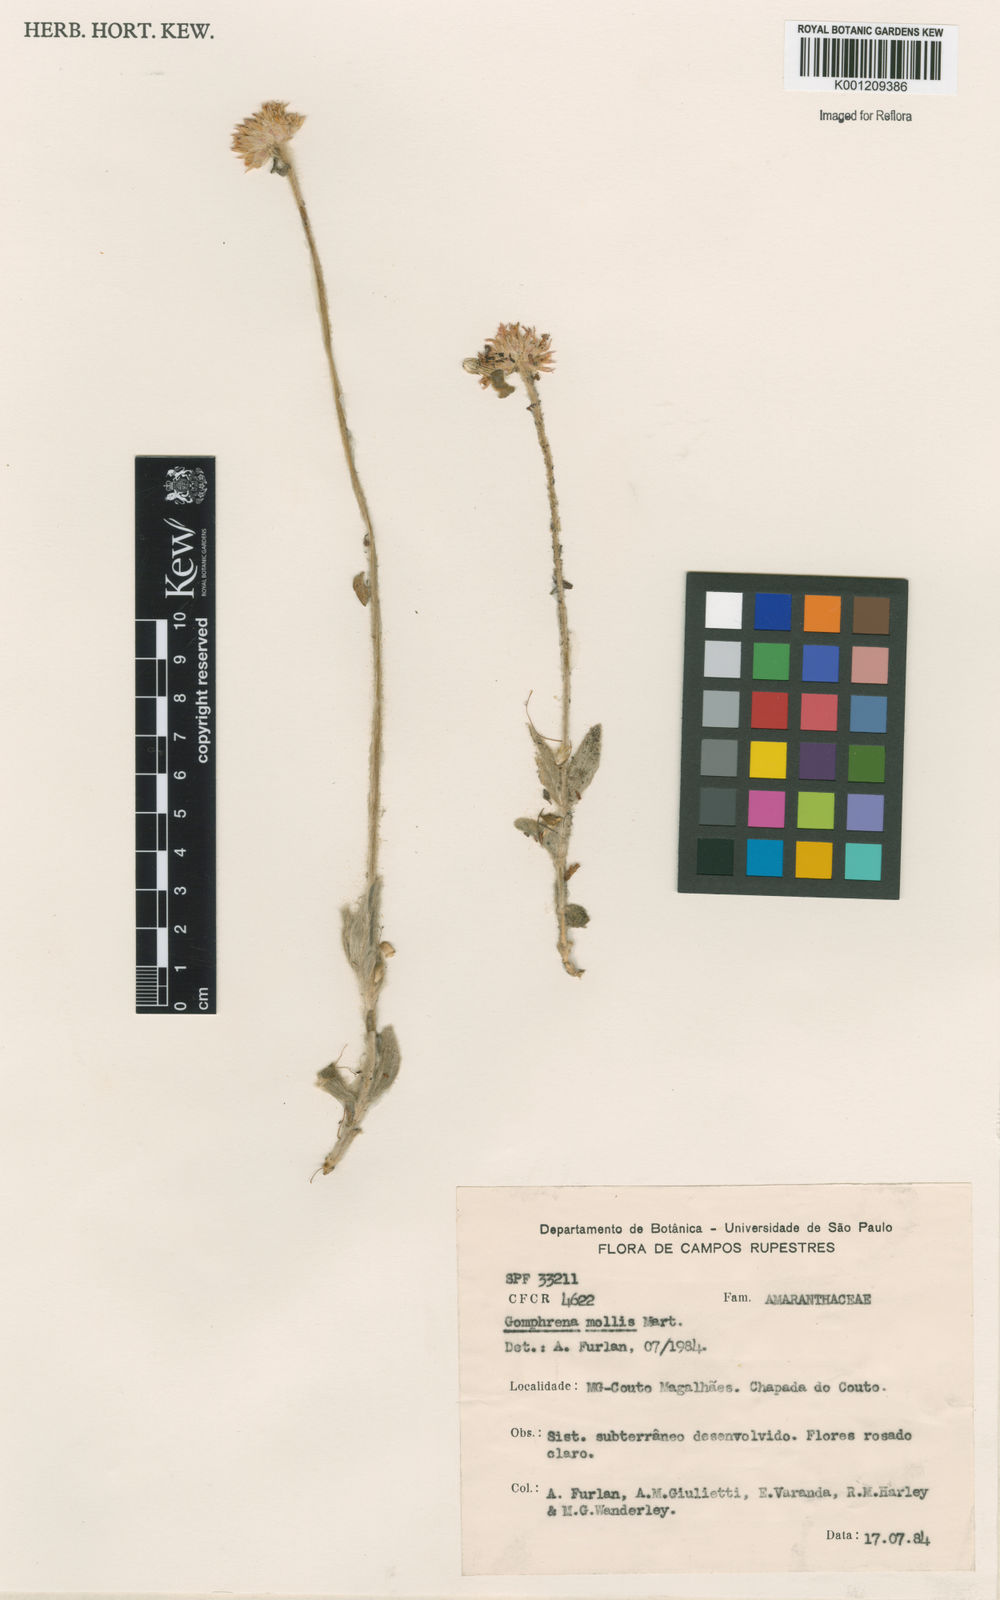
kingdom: Plantae
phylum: Tracheophyta
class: Magnoliopsida
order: Caryophyllales
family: Amaranthaceae
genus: Gomphrena
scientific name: Gomphrena mollis
